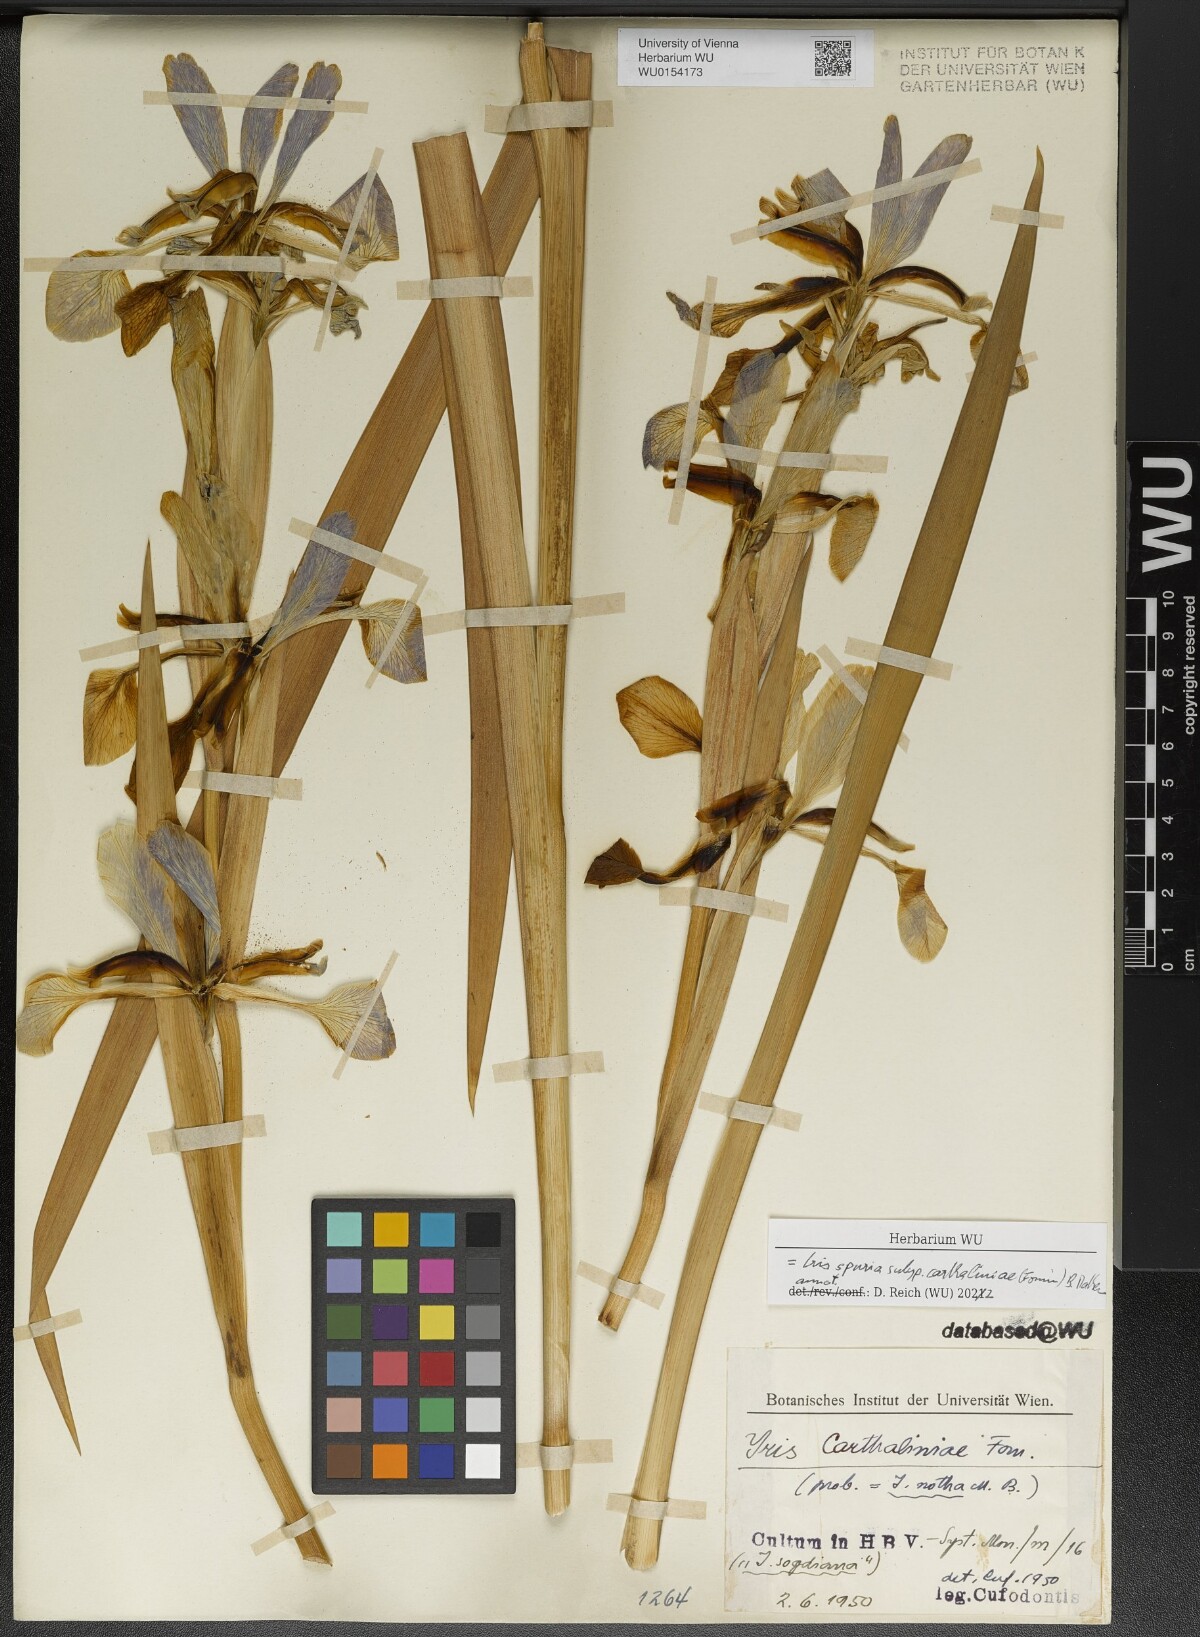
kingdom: Plantae
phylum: Tracheophyta
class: Liliopsida
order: Asparagales
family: Iridaceae
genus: Iris
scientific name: Iris spuria
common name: Blue iris
